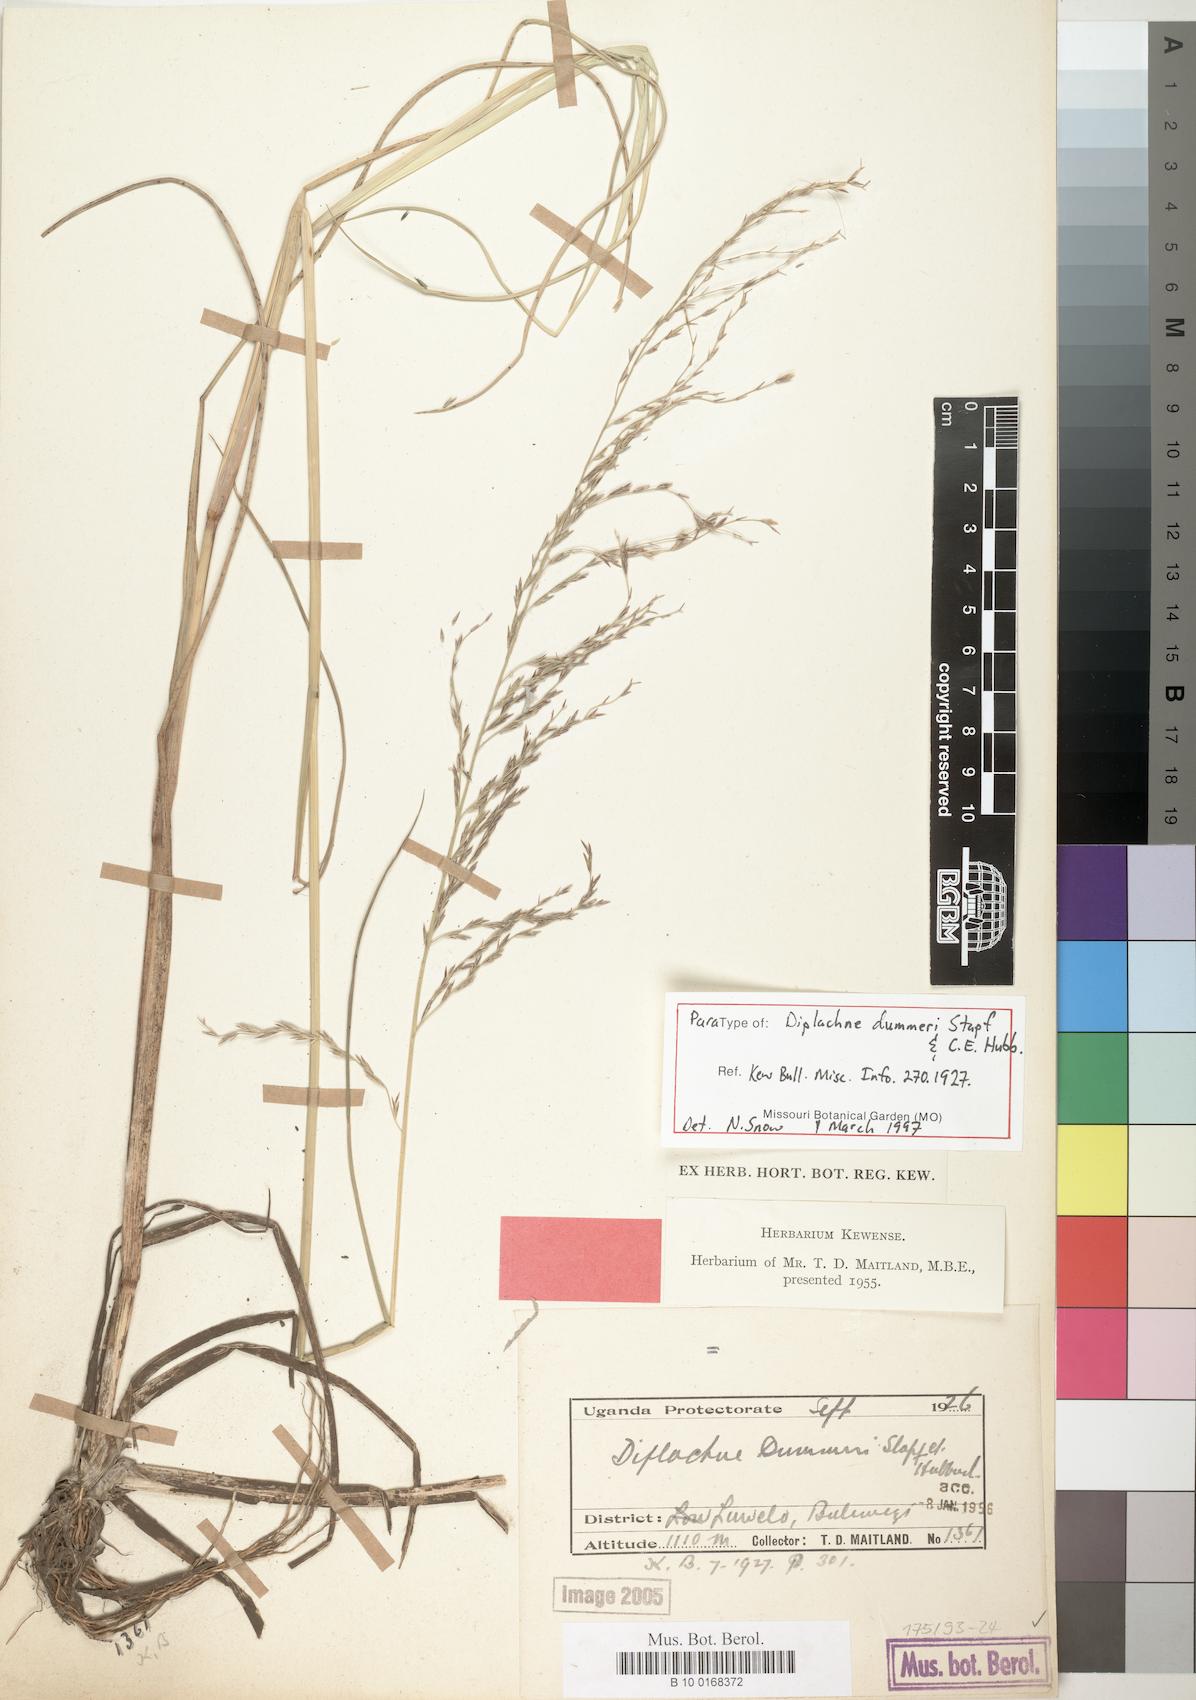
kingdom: Plantae
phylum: Tracheophyta
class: Liliopsida
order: Poales
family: Poaceae
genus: Leptochloa
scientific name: Leptochloa caudata
